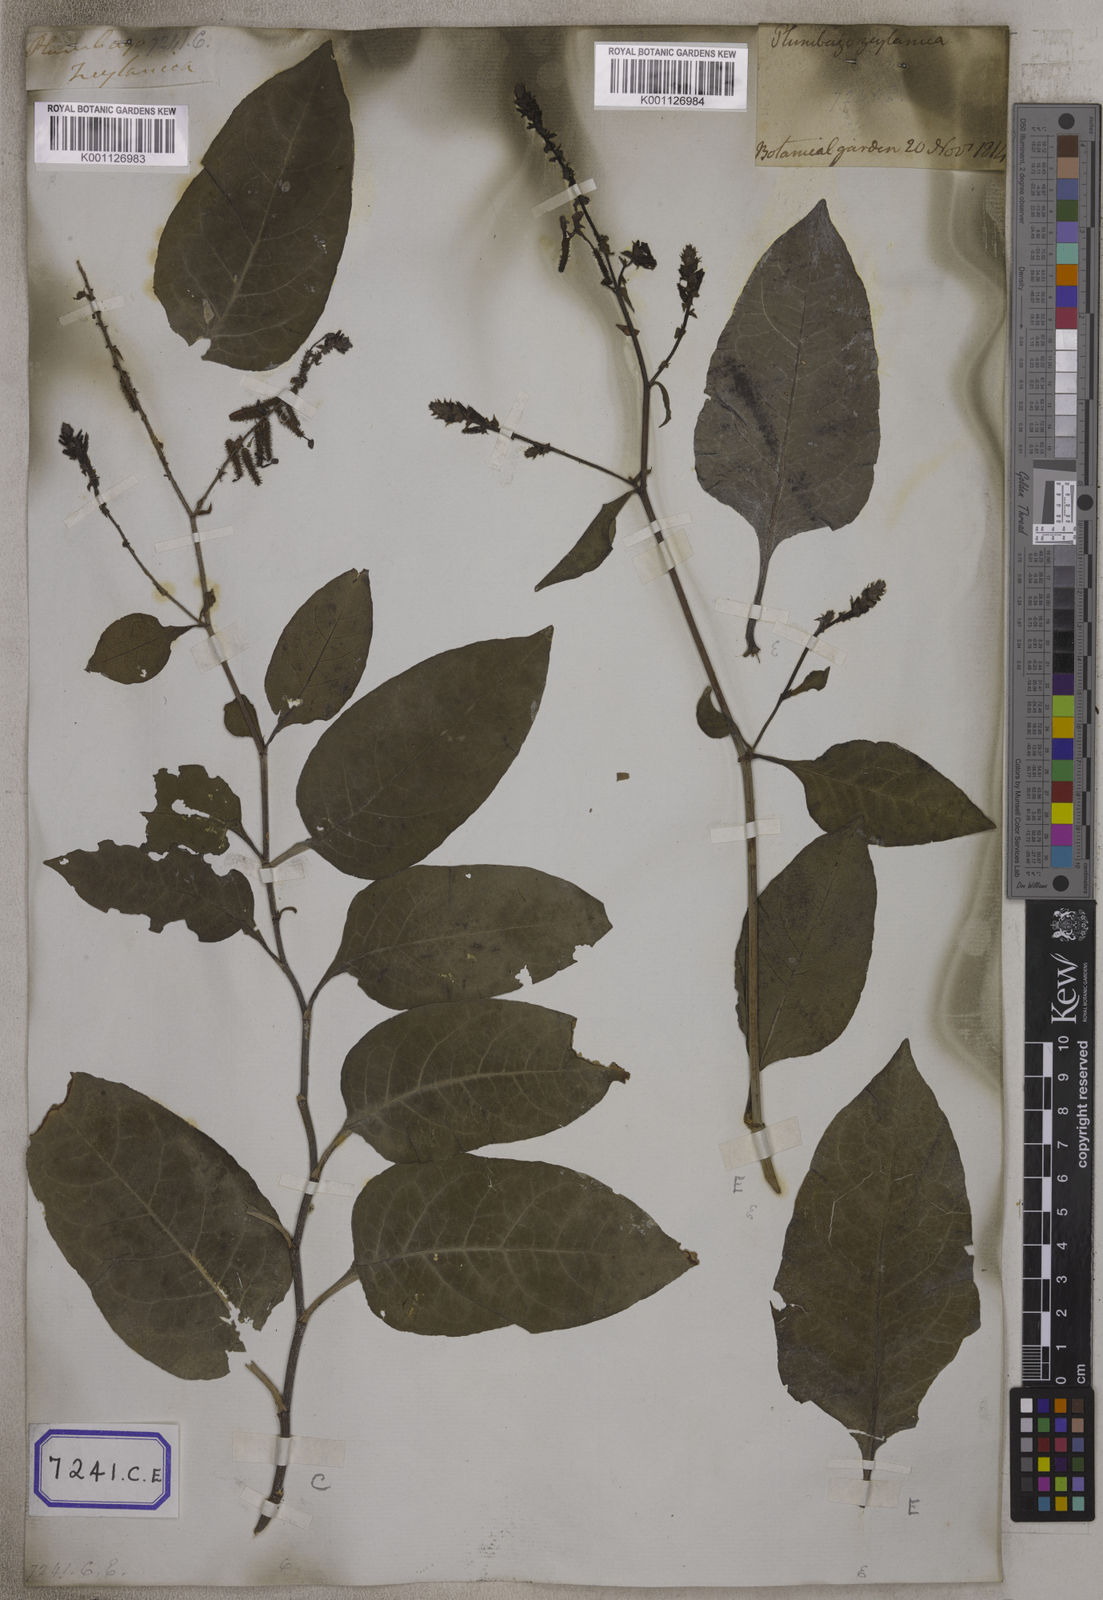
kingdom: Plantae
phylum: Tracheophyta
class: Magnoliopsida
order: Caryophyllales
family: Plumbaginaceae
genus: Plumbago
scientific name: Plumbago zeylanica
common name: Doctorbush
